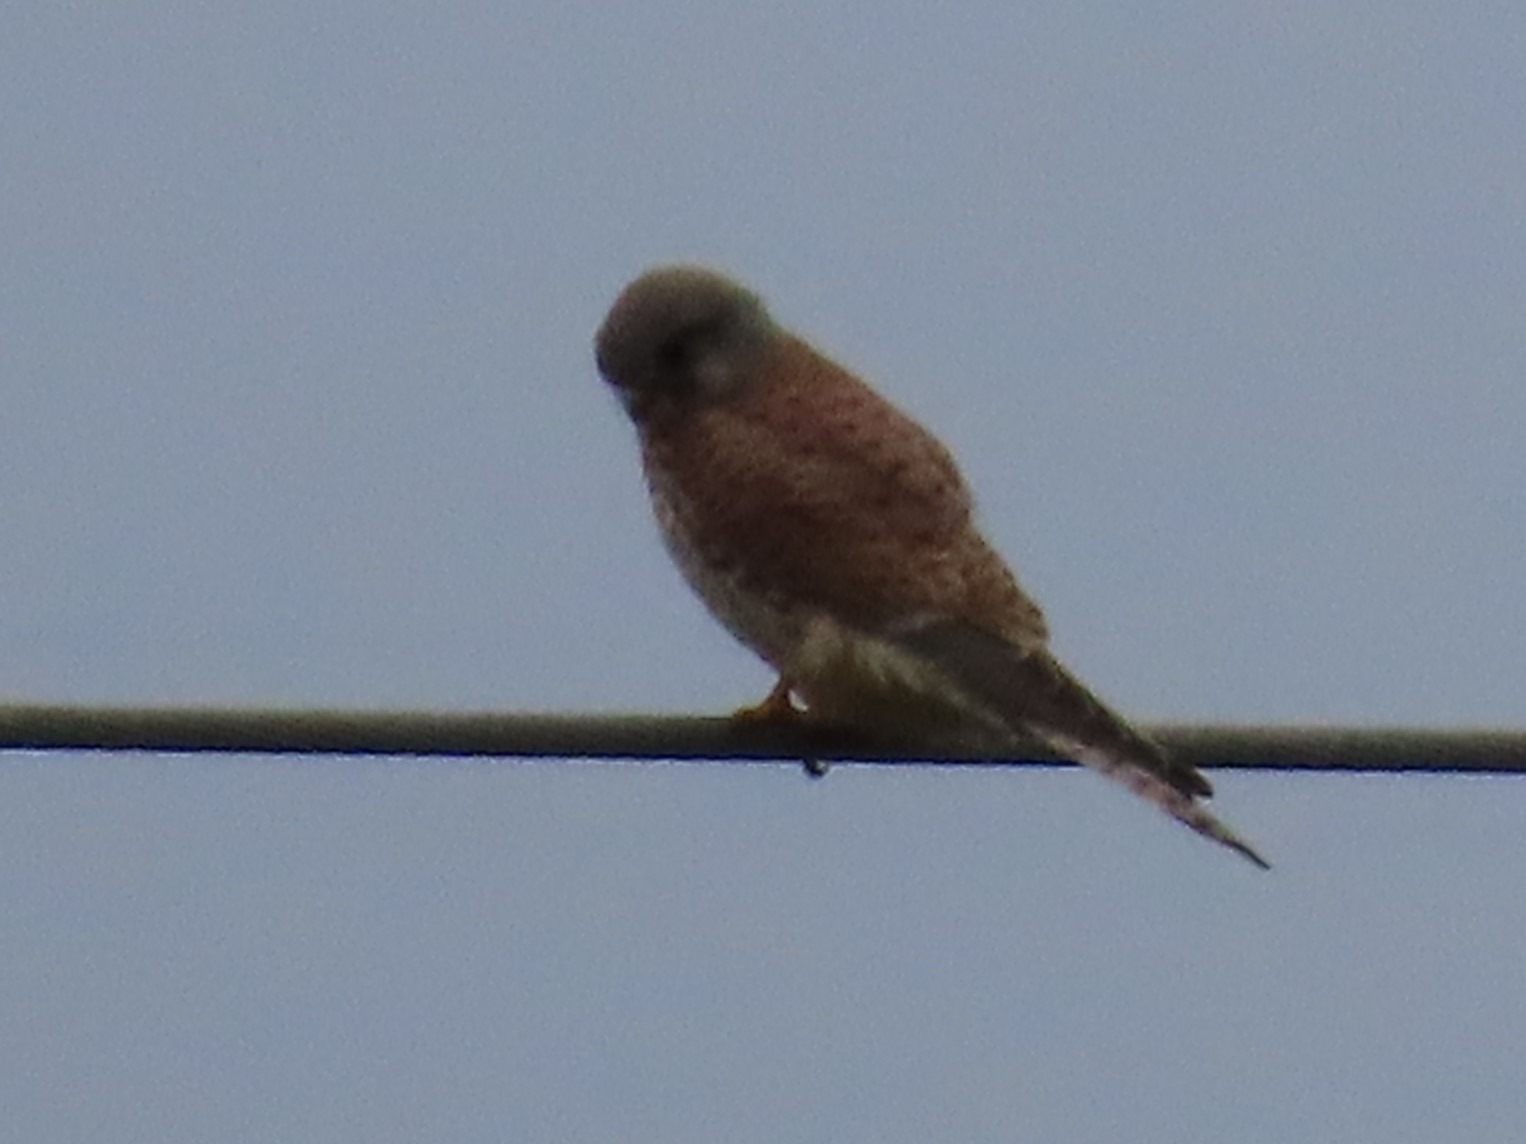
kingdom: Animalia
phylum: Chordata
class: Aves
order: Falconiformes
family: Falconidae
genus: Falco
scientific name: Falco tinnunculus
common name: Tårnfalk
